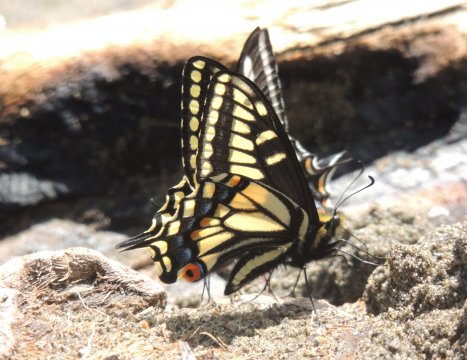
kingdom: Animalia
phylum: Arthropoda
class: Insecta
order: Lepidoptera
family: Papilionidae
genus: Papilio
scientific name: Papilio zelicaon
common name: Anise Swallowtail
